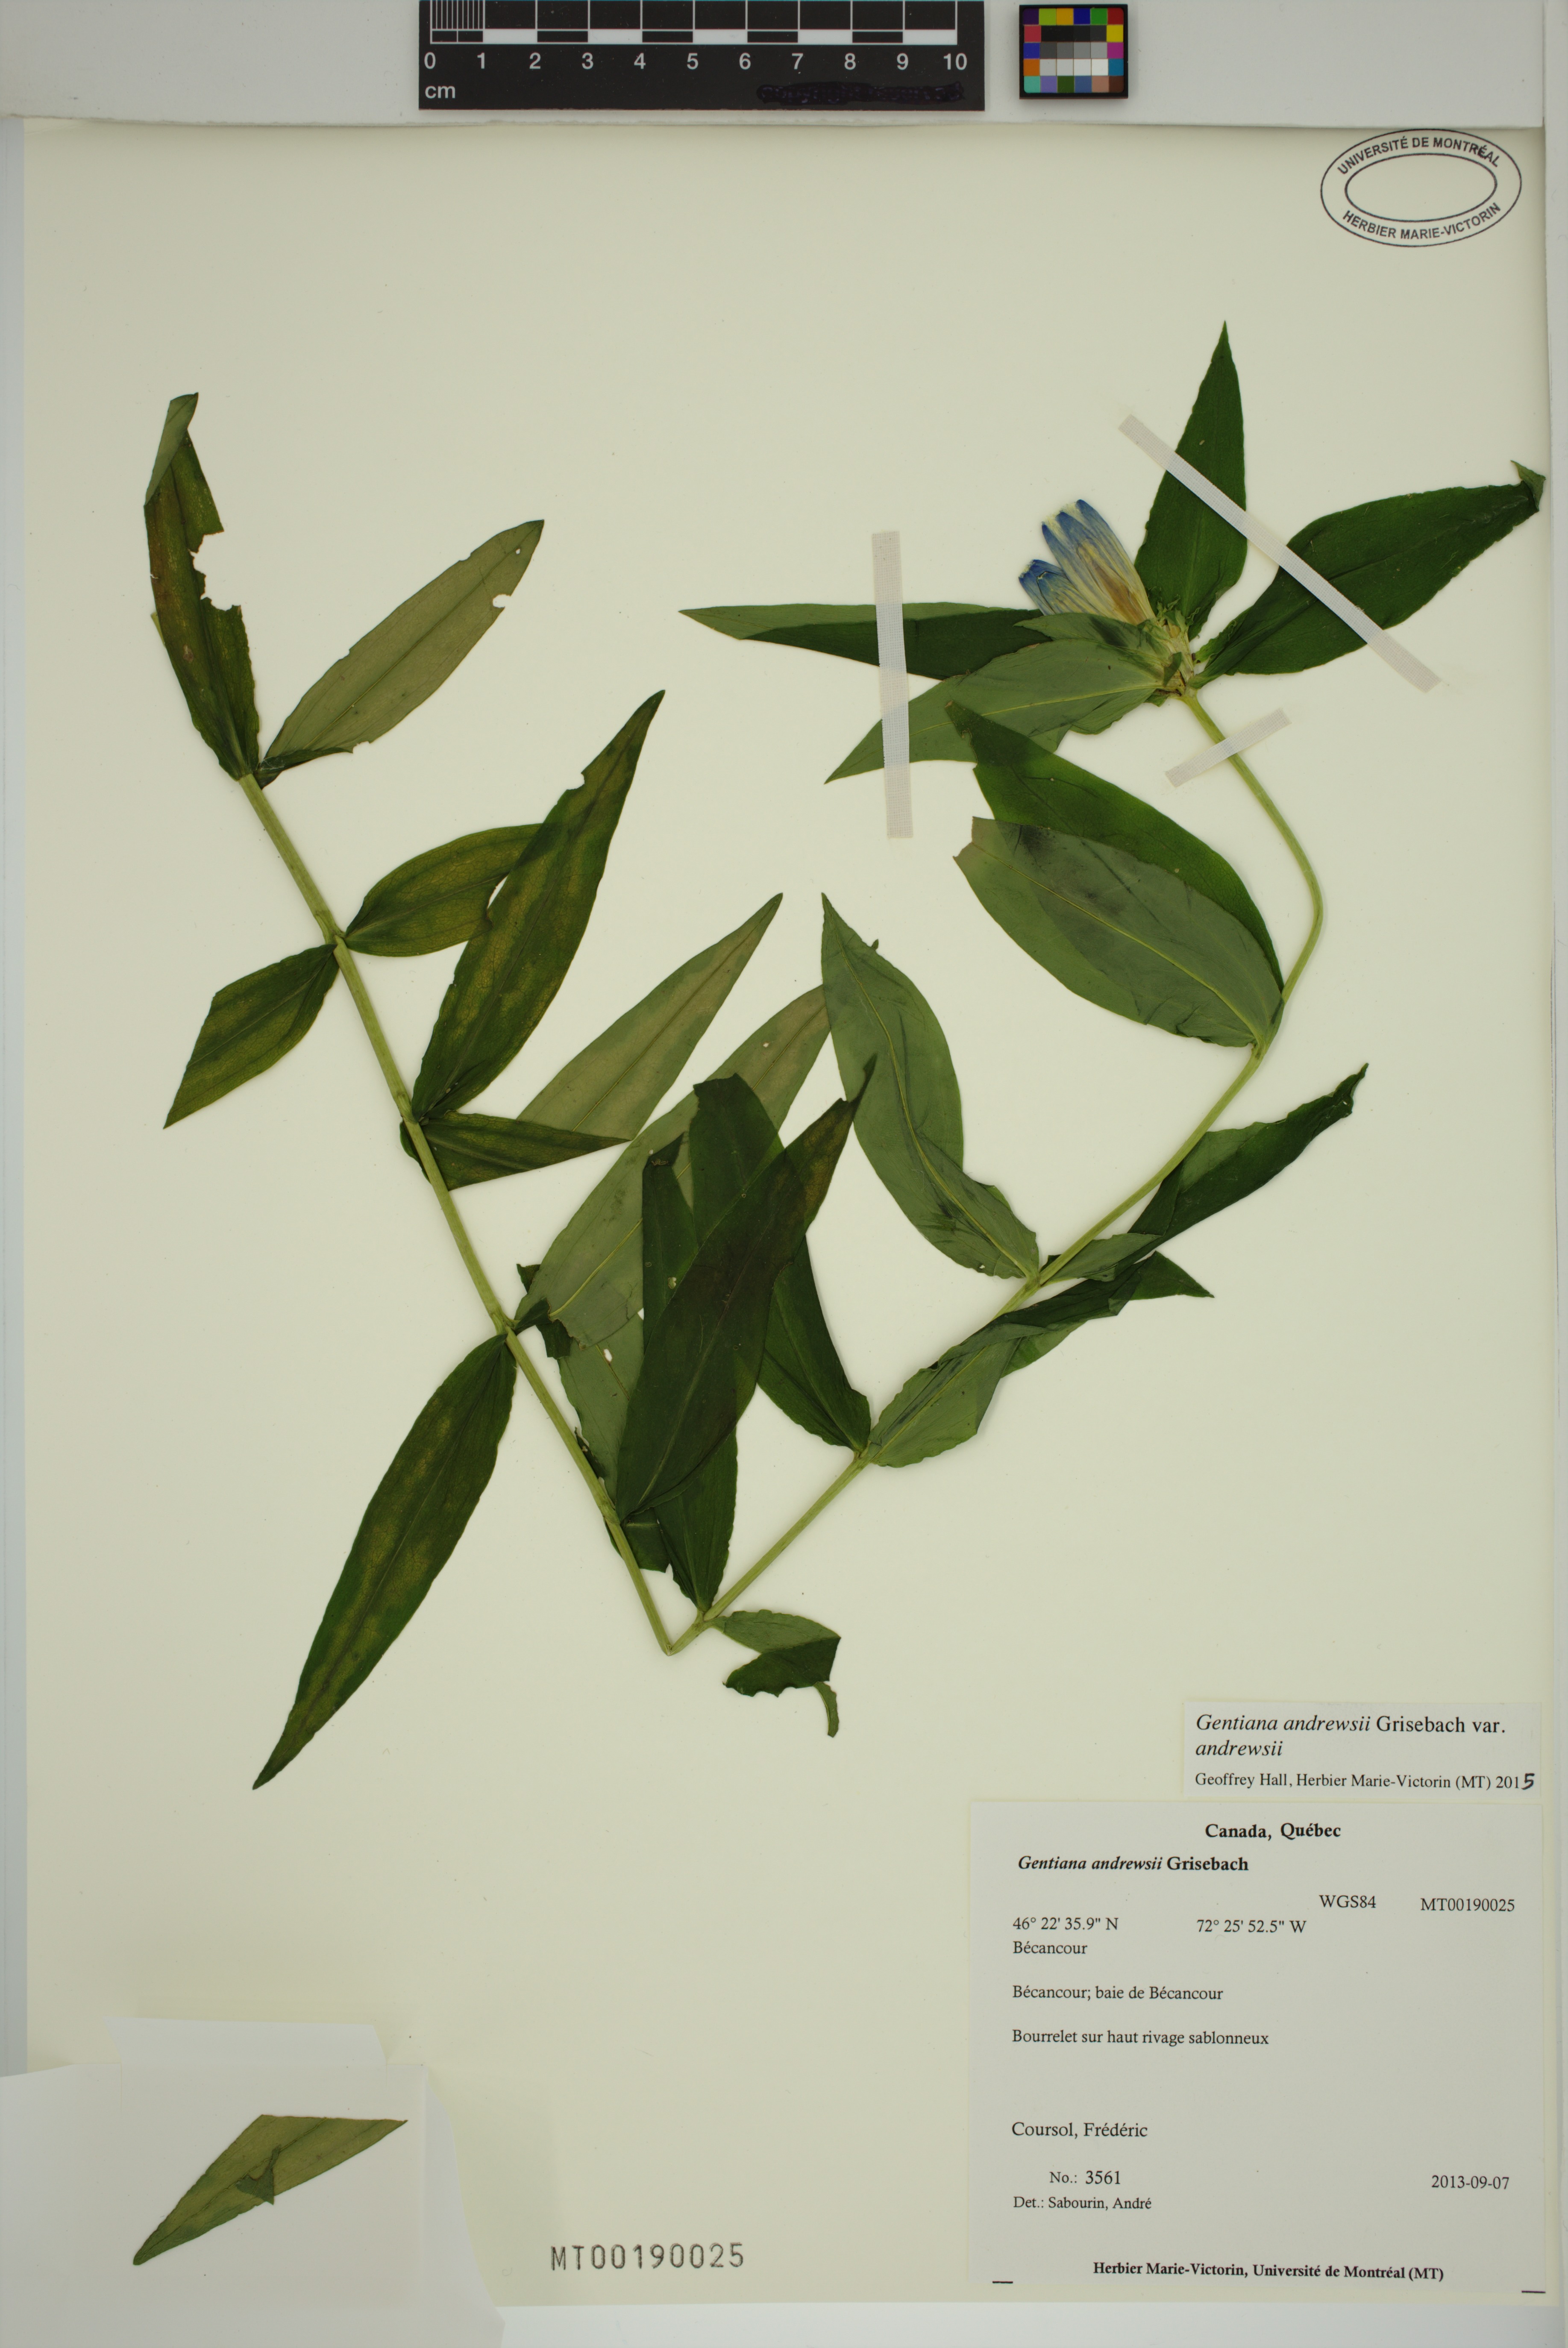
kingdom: Plantae
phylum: Tracheophyta
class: Magnoliopsida
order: Gentianales
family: Gentianaceae
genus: Gentiana
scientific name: Gentiana andrewsii
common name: Bottle gentian
